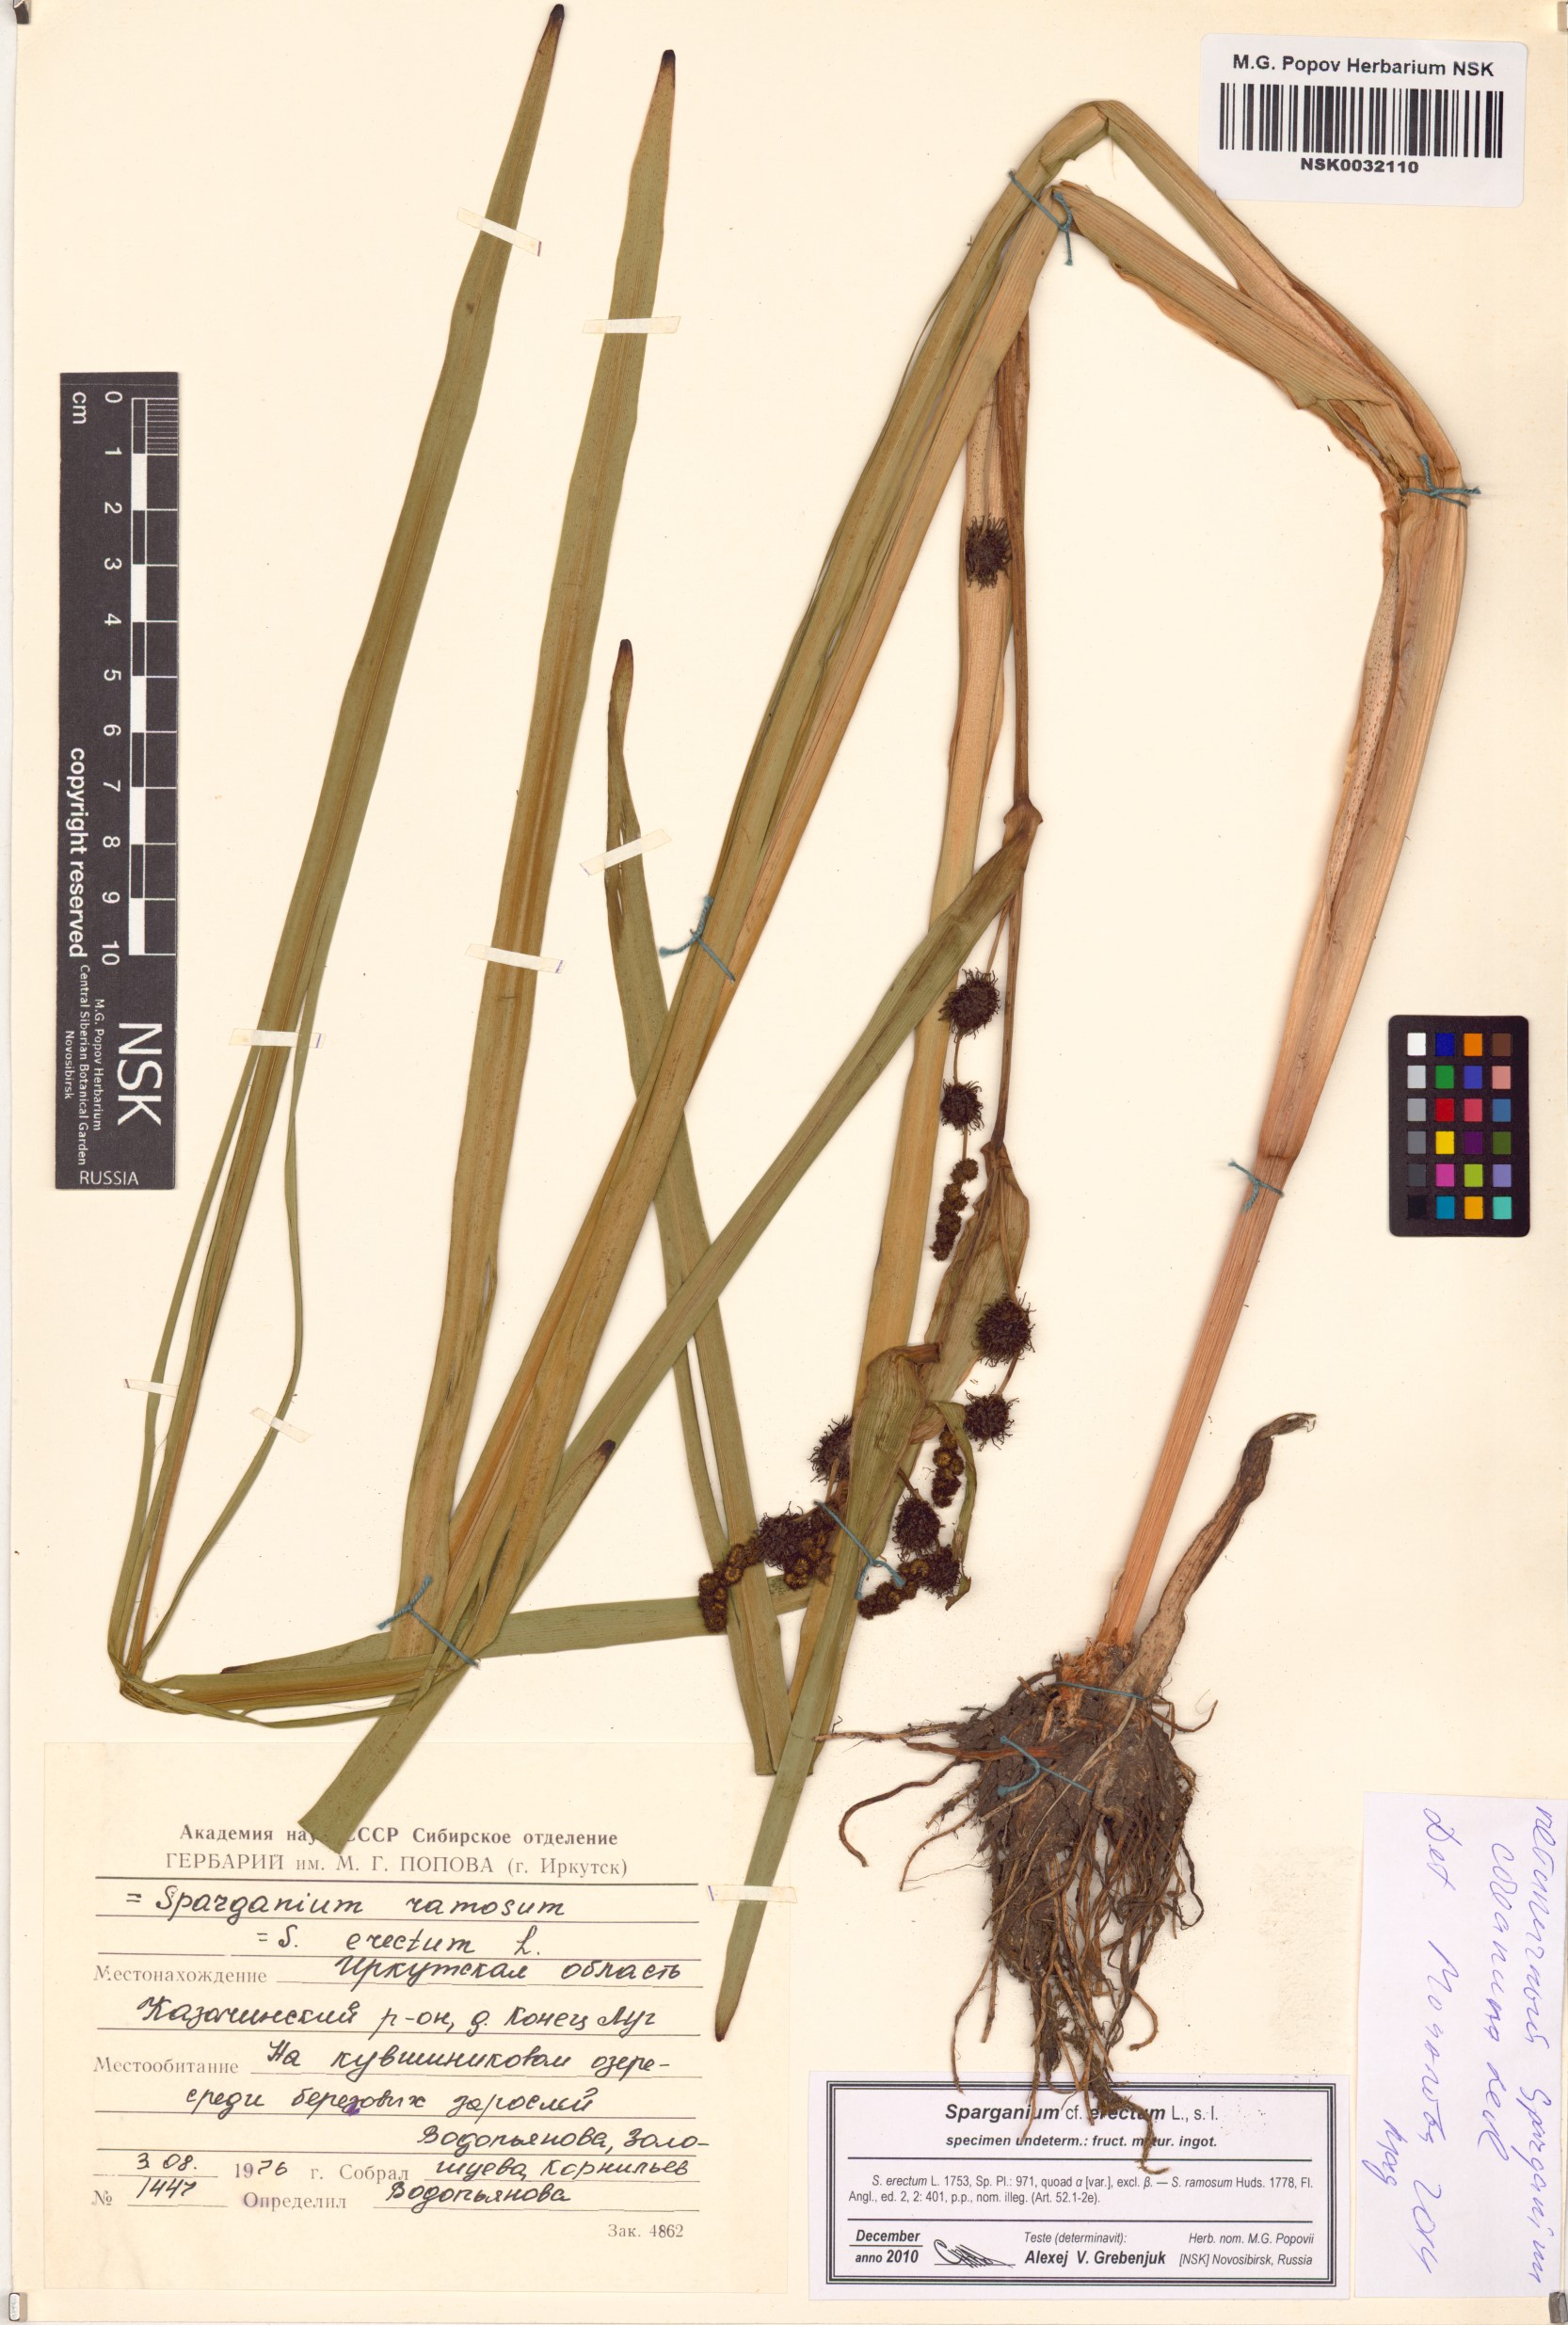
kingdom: Plantae
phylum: Tracheophyta
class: Liliopsida
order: Poales
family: Typhaceae
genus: Sparganium
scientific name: Sparganium erectum
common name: Branched bur-reed
